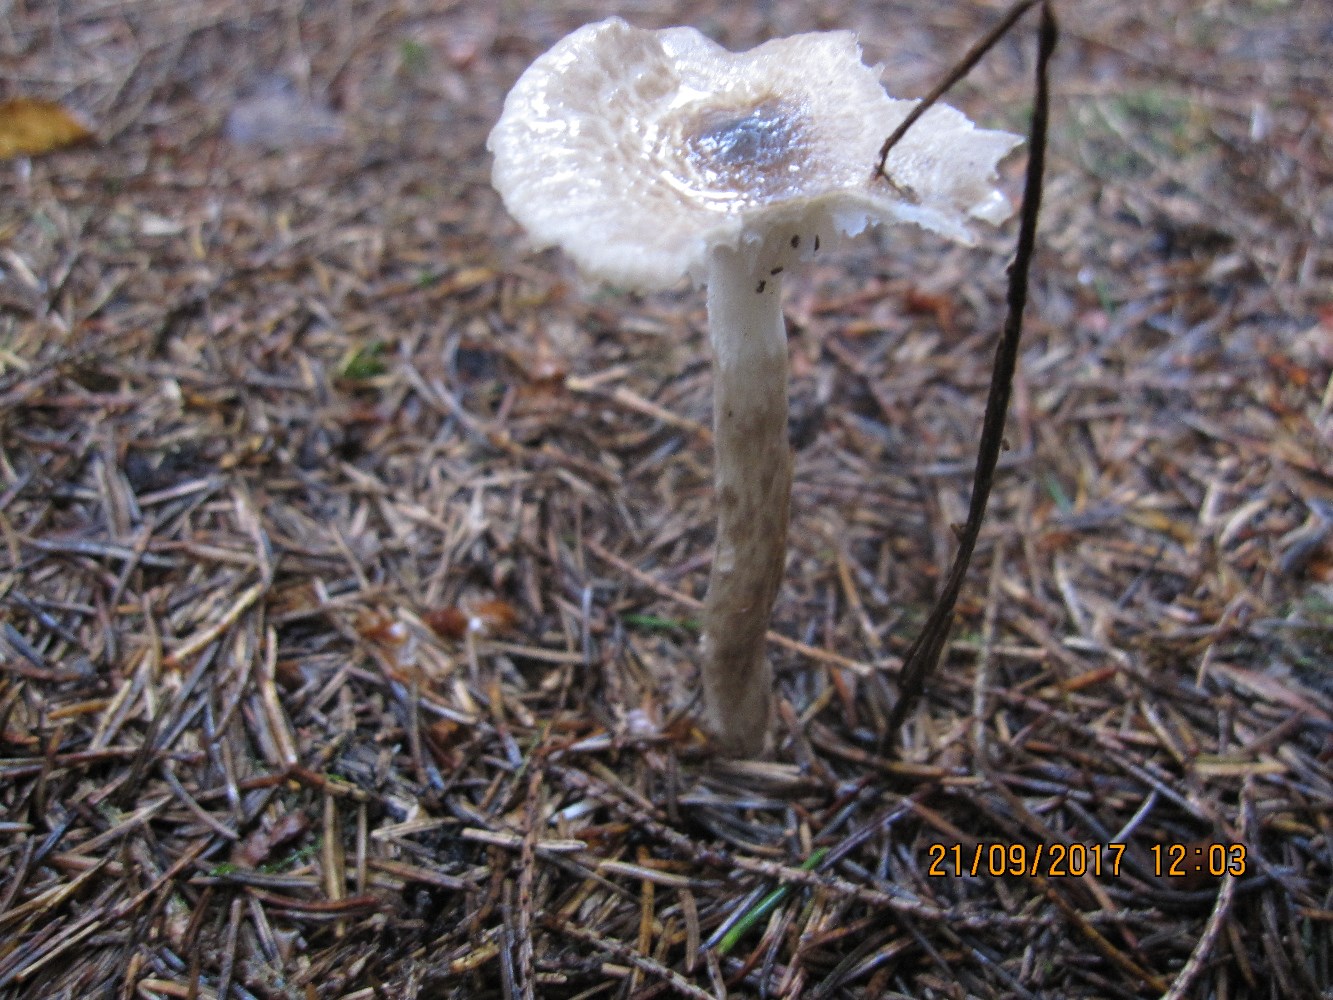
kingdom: Fungi
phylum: Basidiomycota
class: Agaricomycetes
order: Agaricales
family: Hygrophoraceae
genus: Hygrophorus
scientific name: Hygrophorus olivaceoalbus
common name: hvidbrun sneglehat
